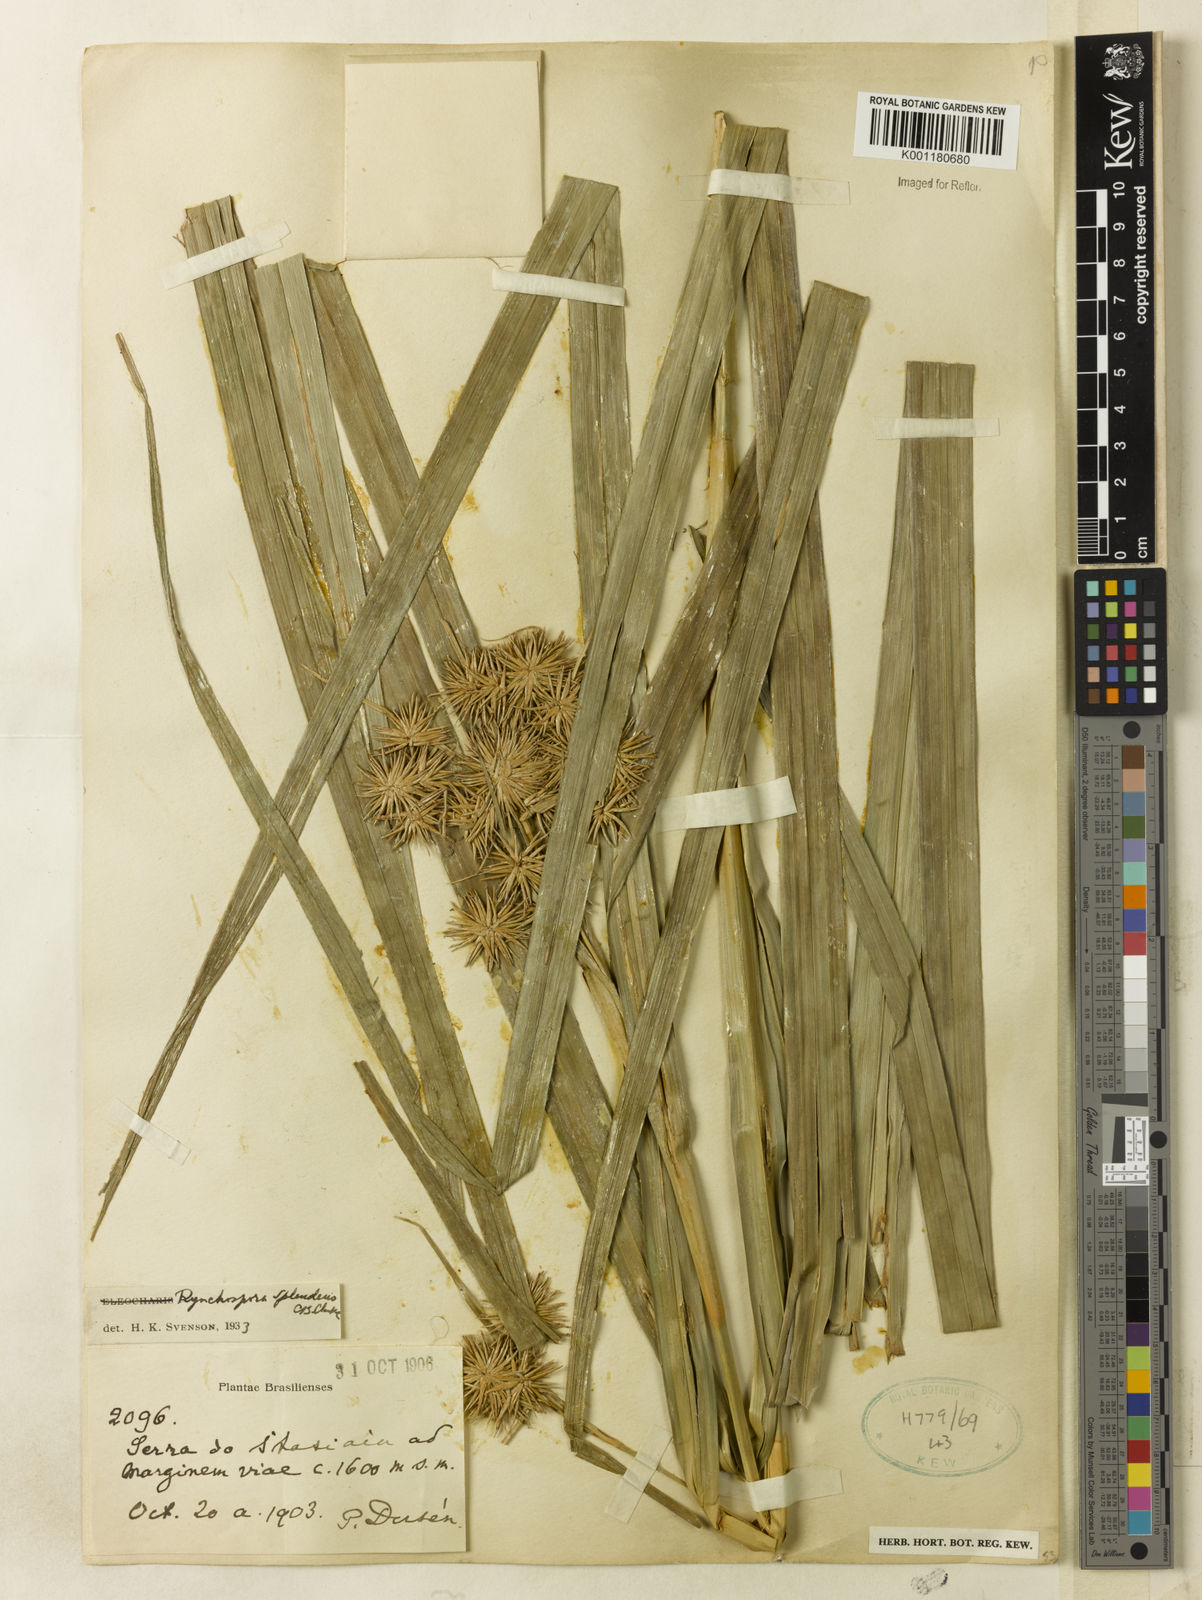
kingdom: Plantae
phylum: Tracheophyta
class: Liliopsida
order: Poales
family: Cyperaceae
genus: Rhynchospora
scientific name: Rhynchospora splendens
